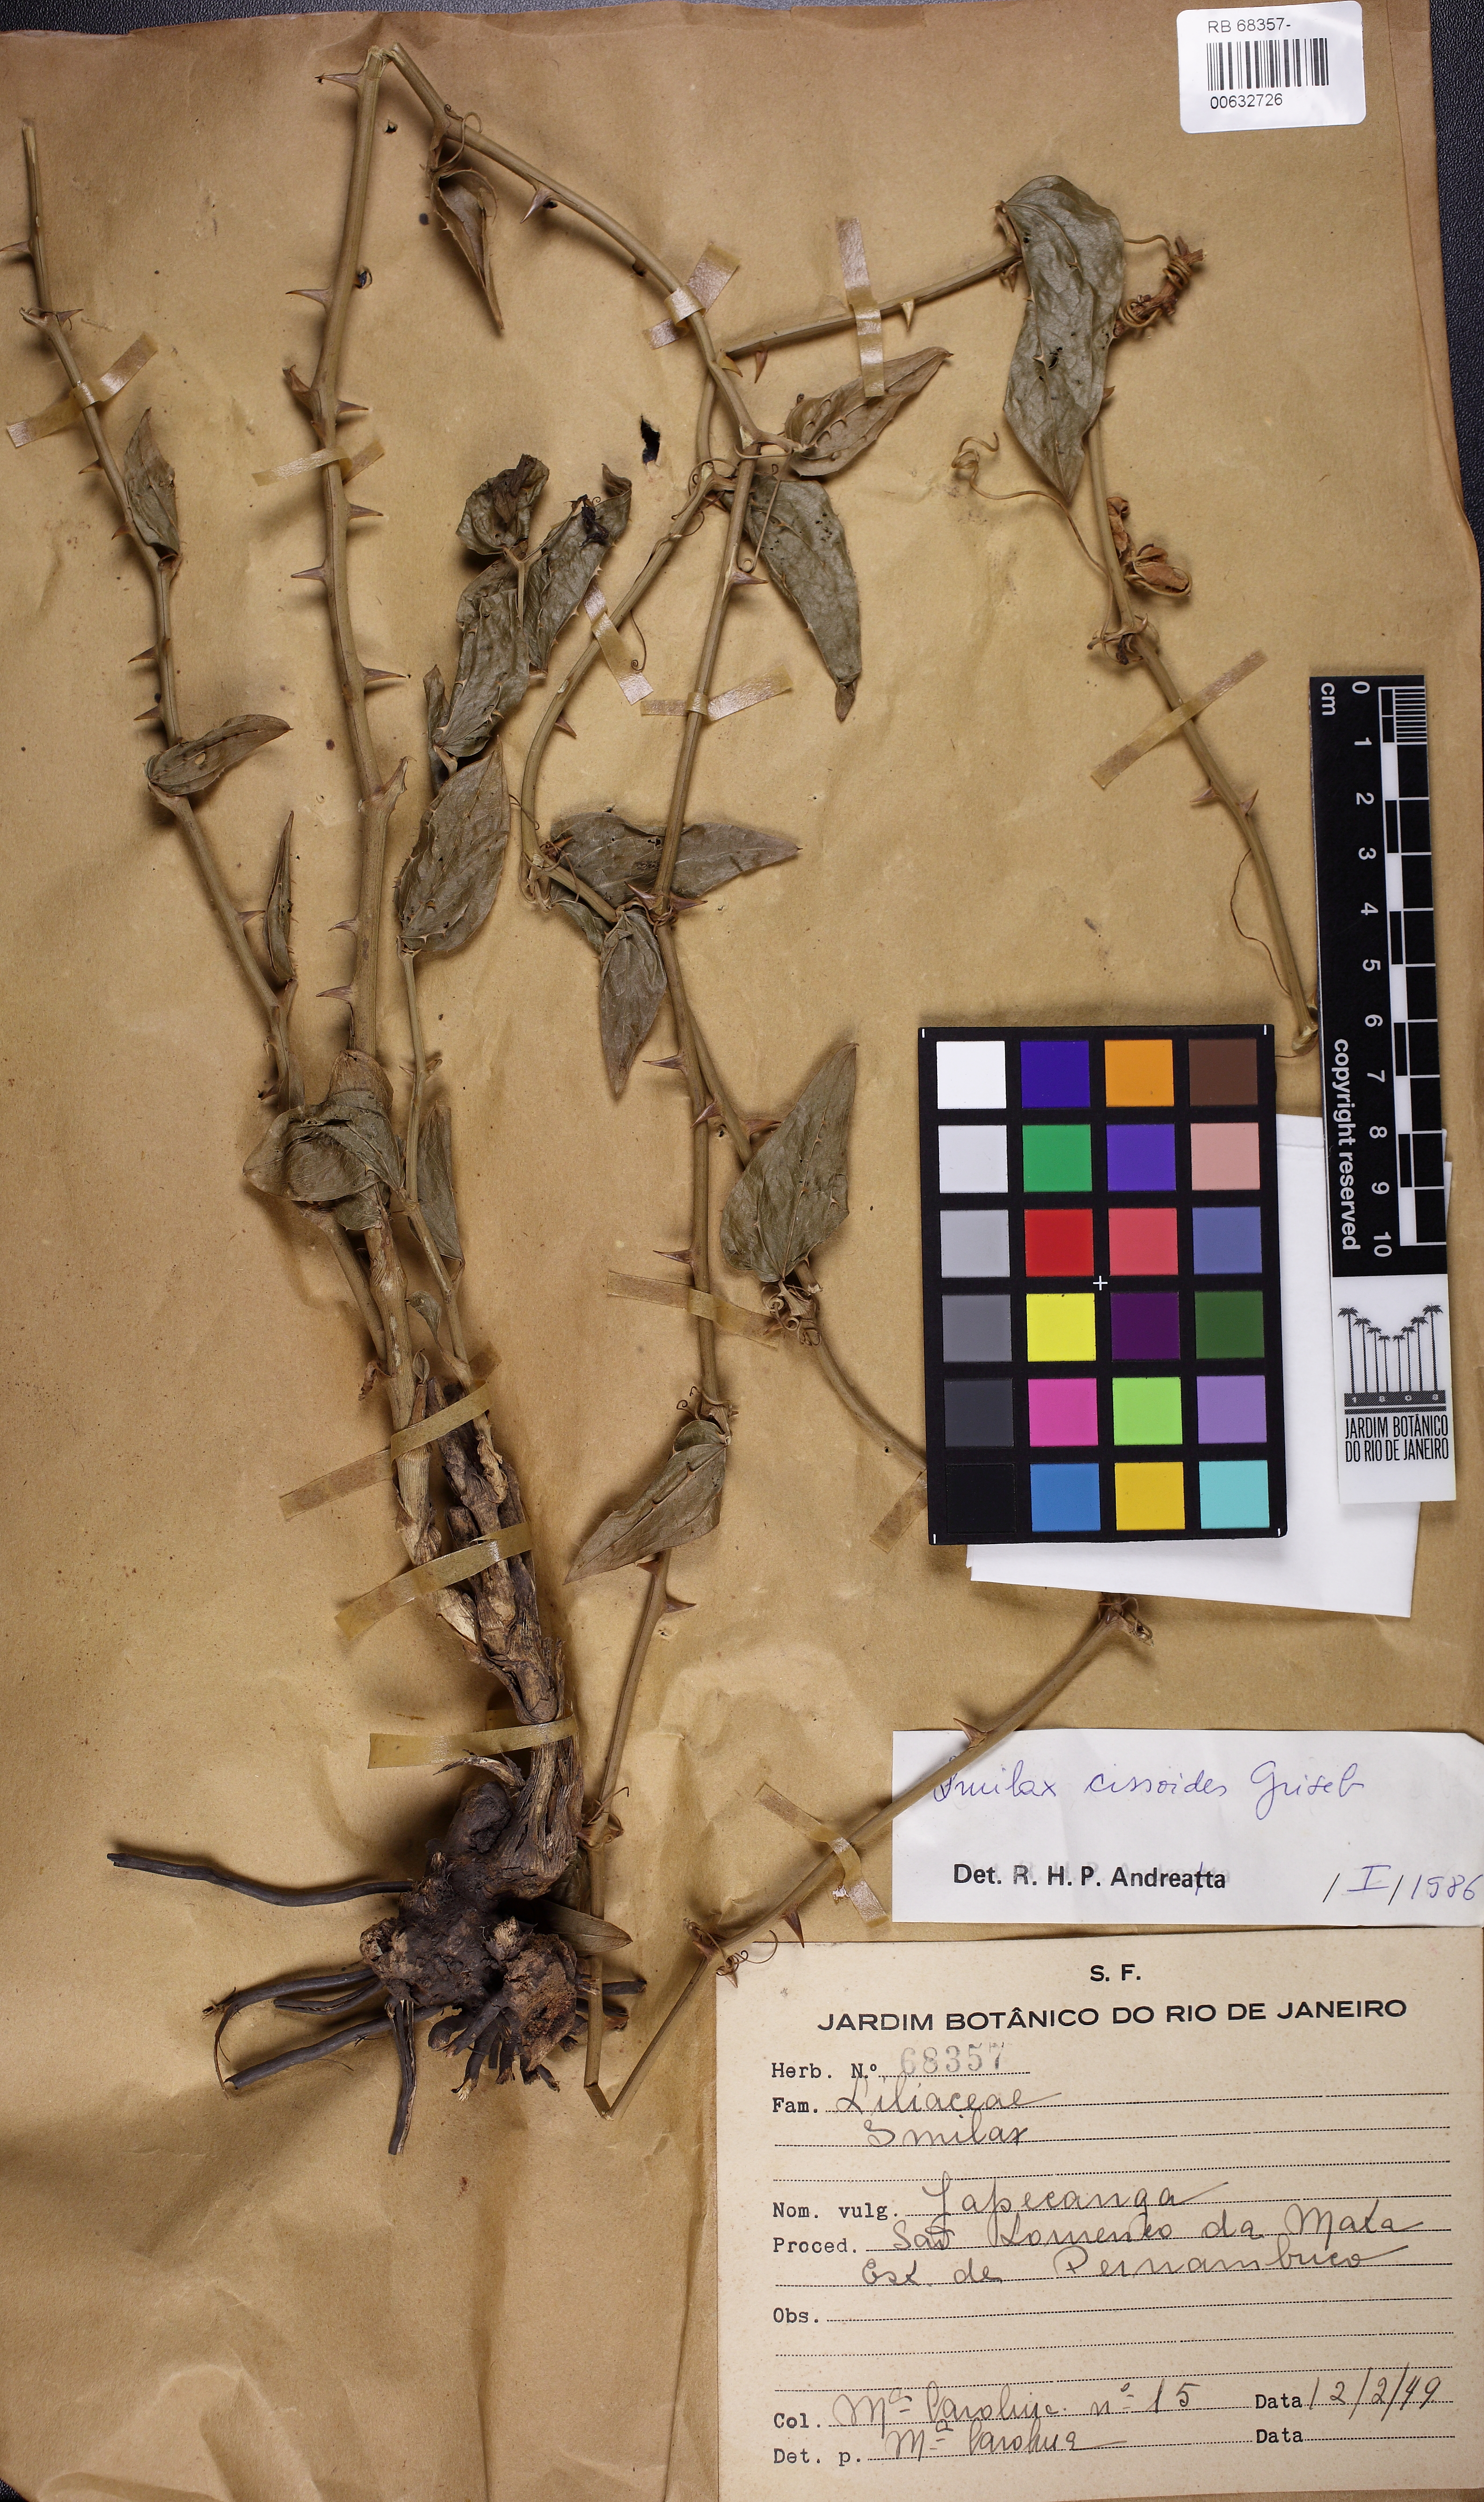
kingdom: Plantae
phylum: Tracheophyta
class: Liliopsida
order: Liliales
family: Smilacaceae
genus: Smilax
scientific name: Smilax cissoides
